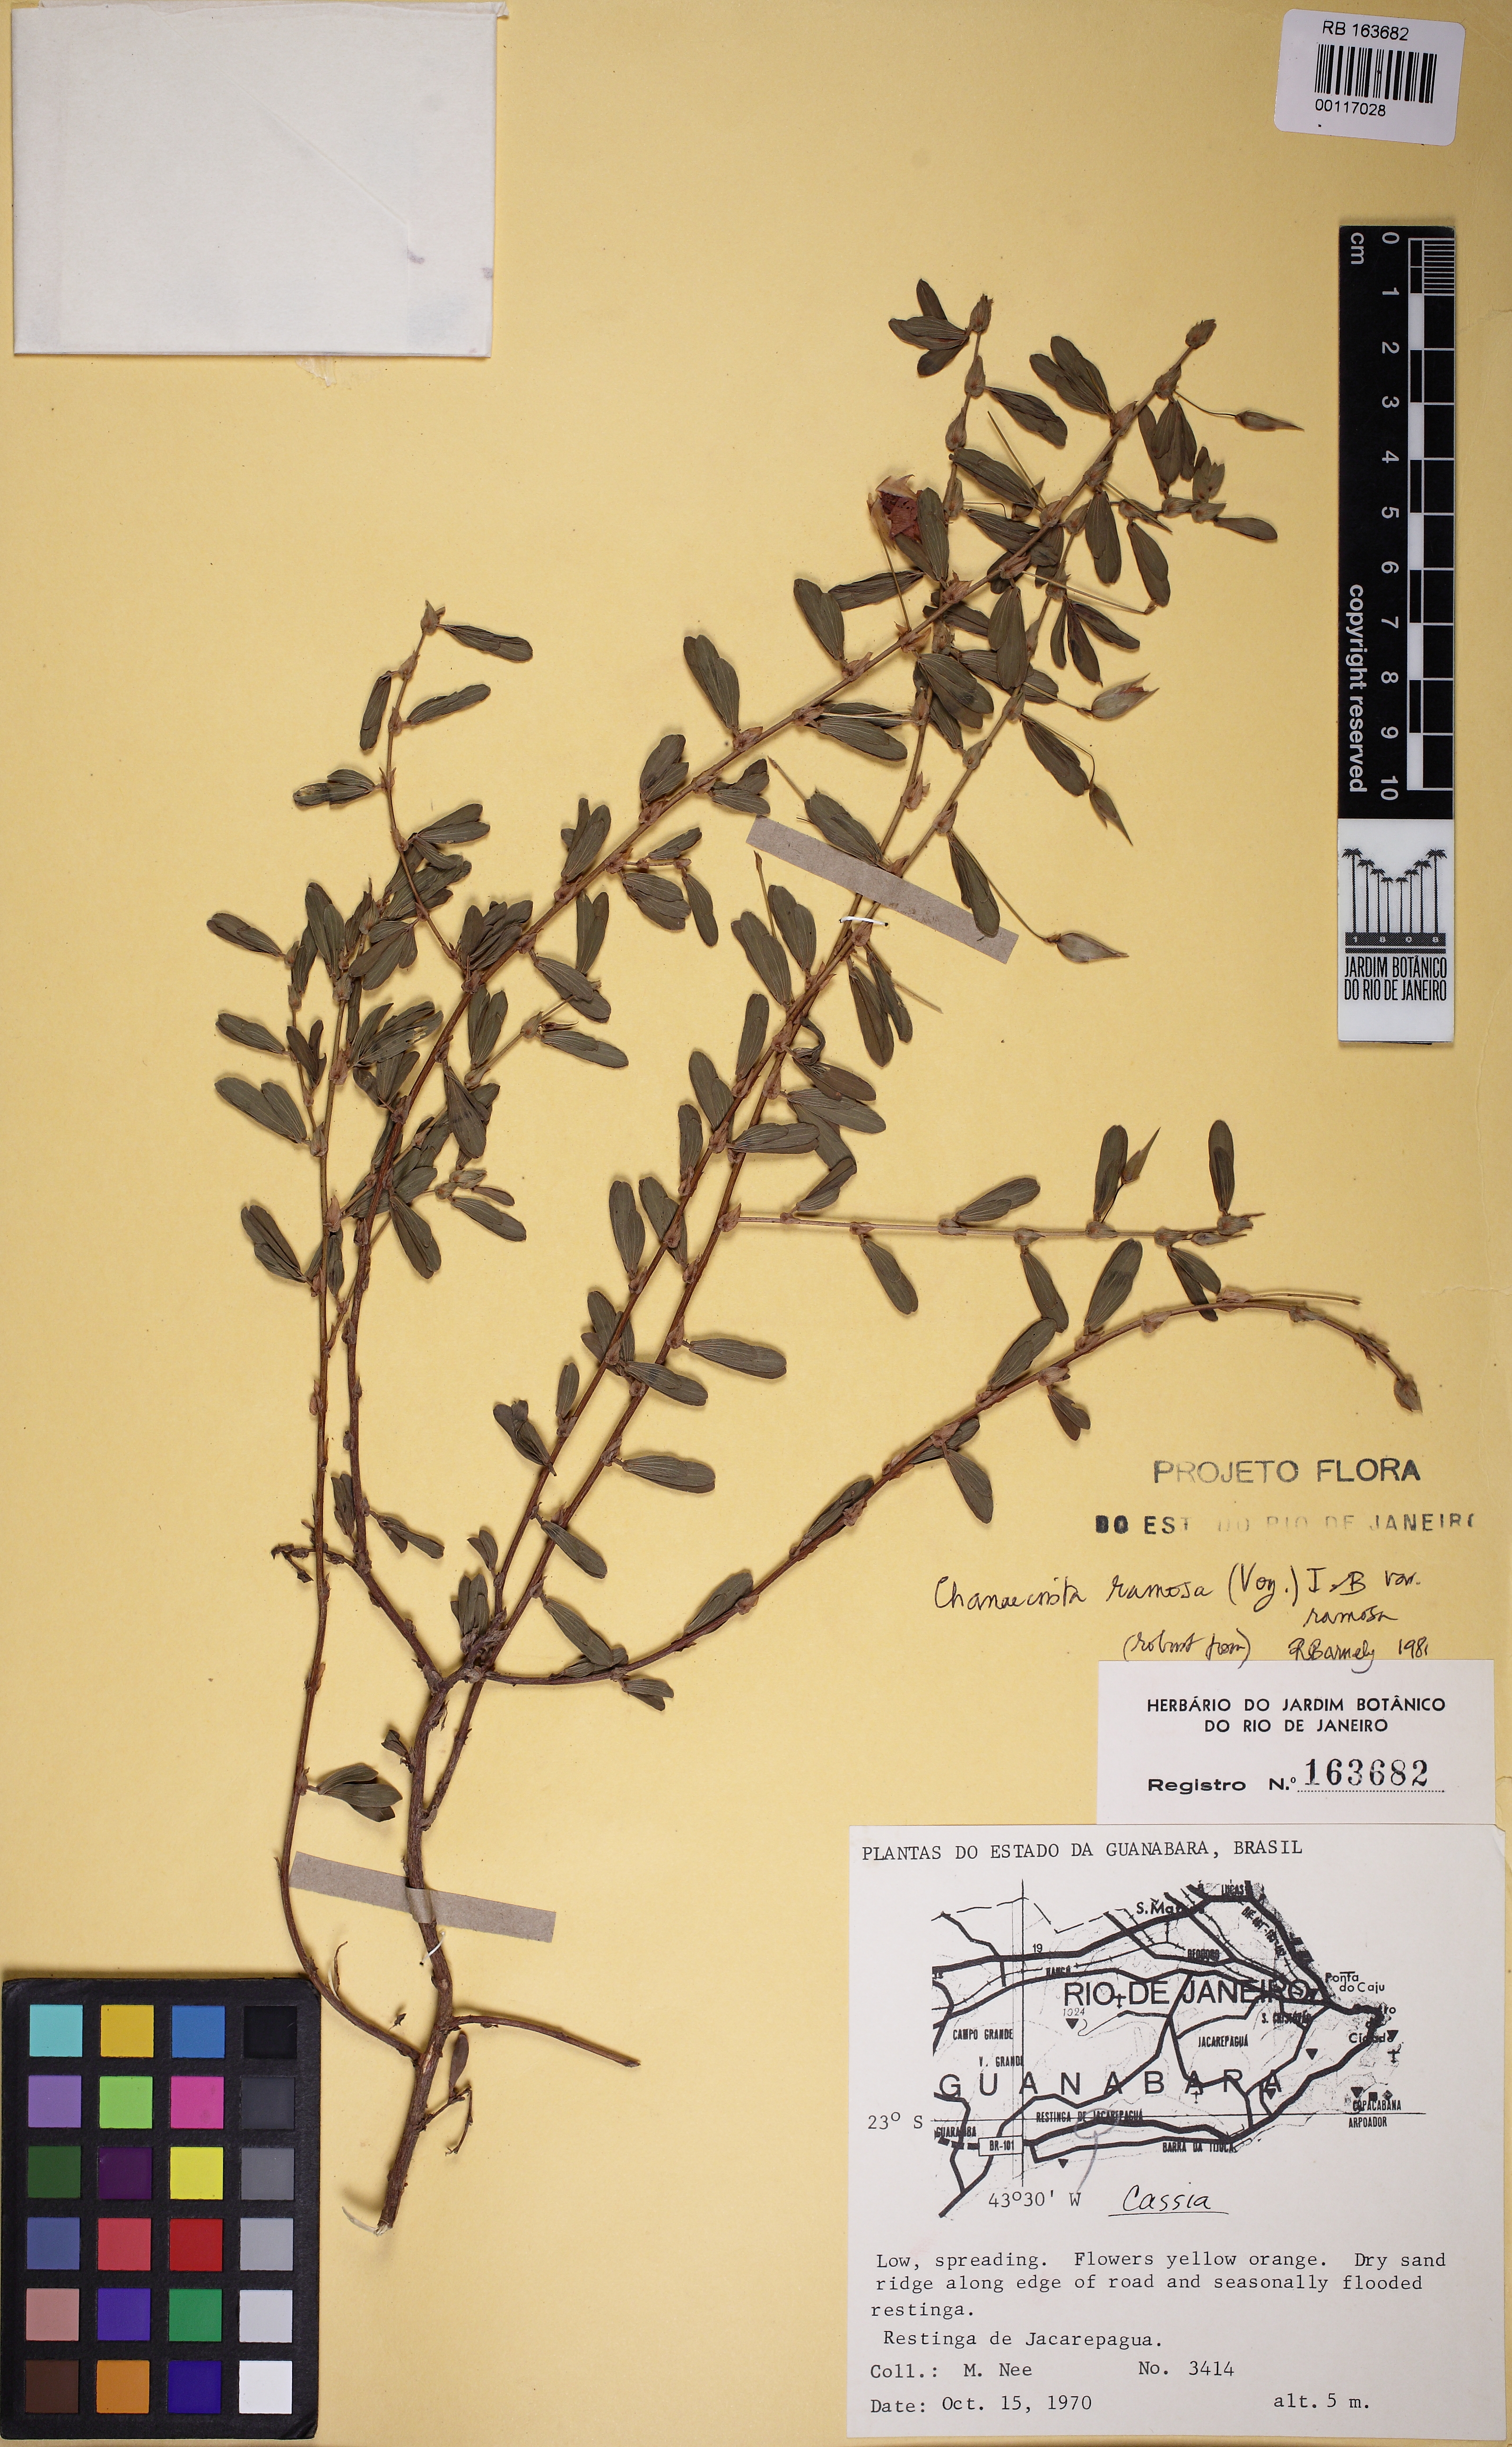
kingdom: Plantae
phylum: Tracheophyta
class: Magnoliopsida
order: Fabales
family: Fabaceae
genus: Chamaecrista
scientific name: Chamaecrista ramosa
